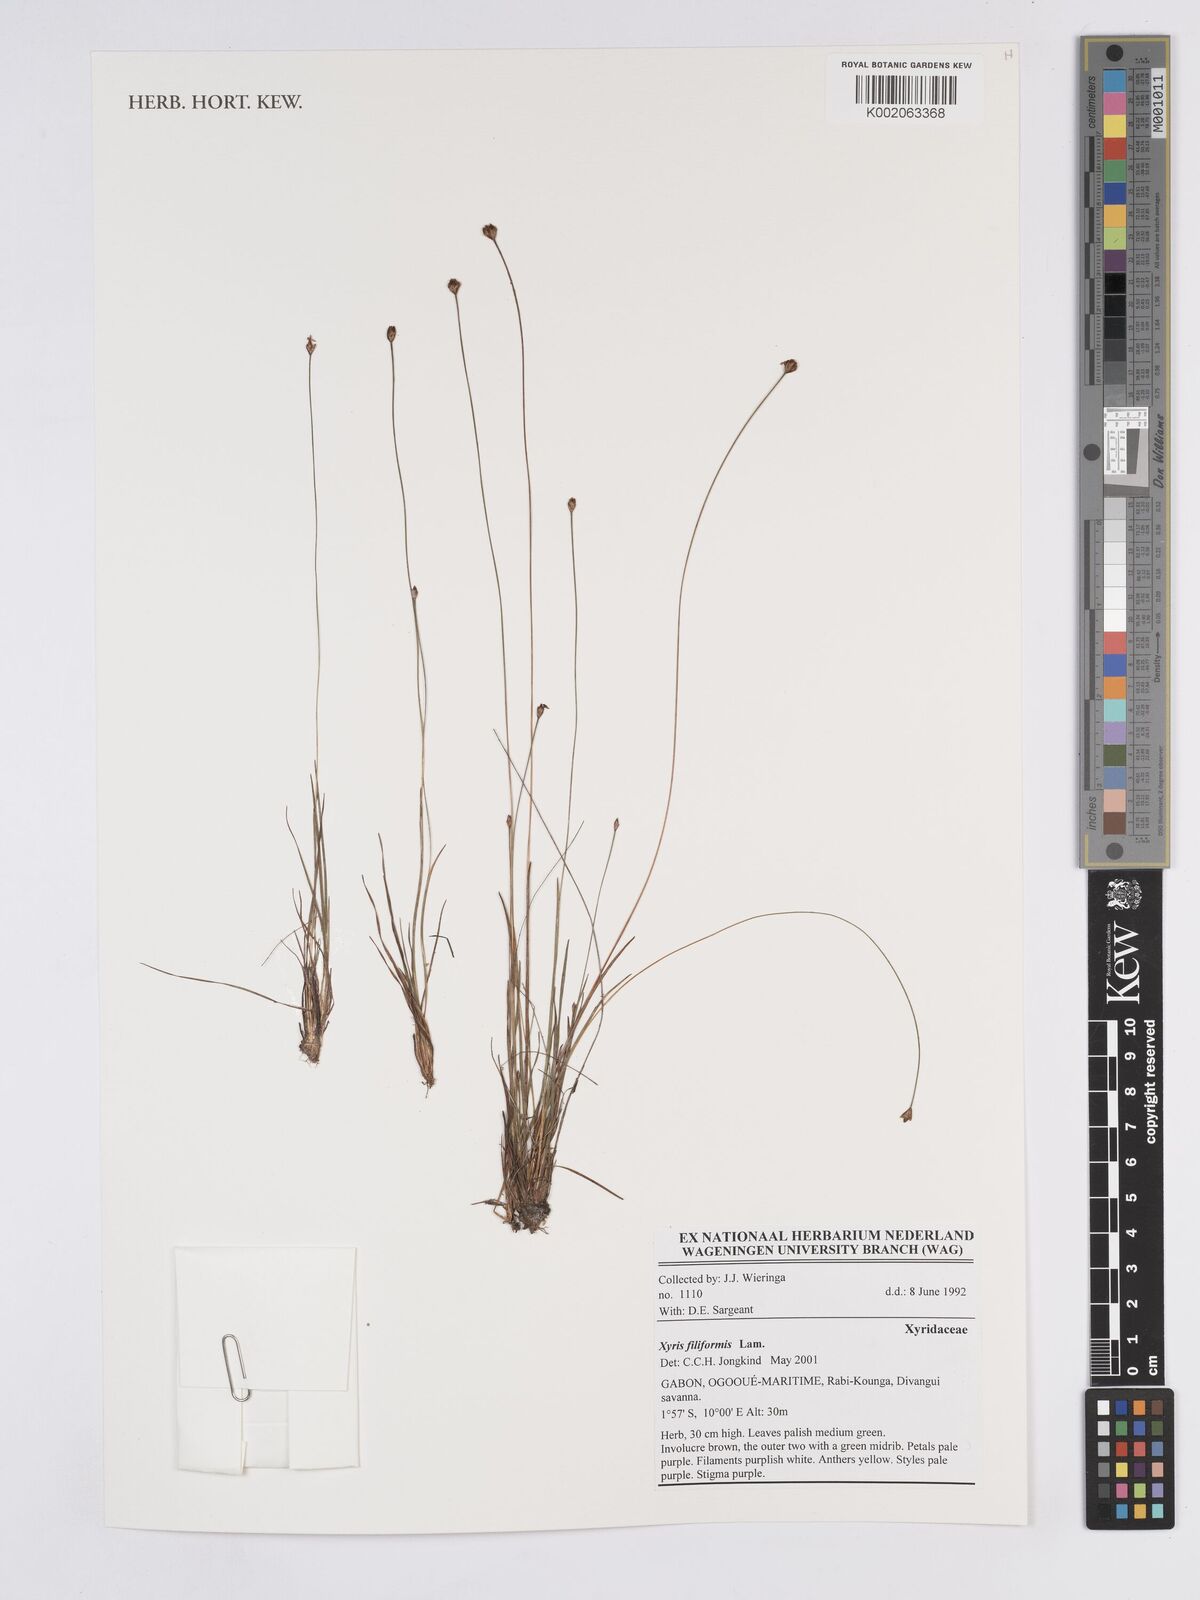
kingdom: Plantae
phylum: Tracheophyta
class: Liliopsida
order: Poales
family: Xyridaceae
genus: Xyris
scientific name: Xyris filiformis
